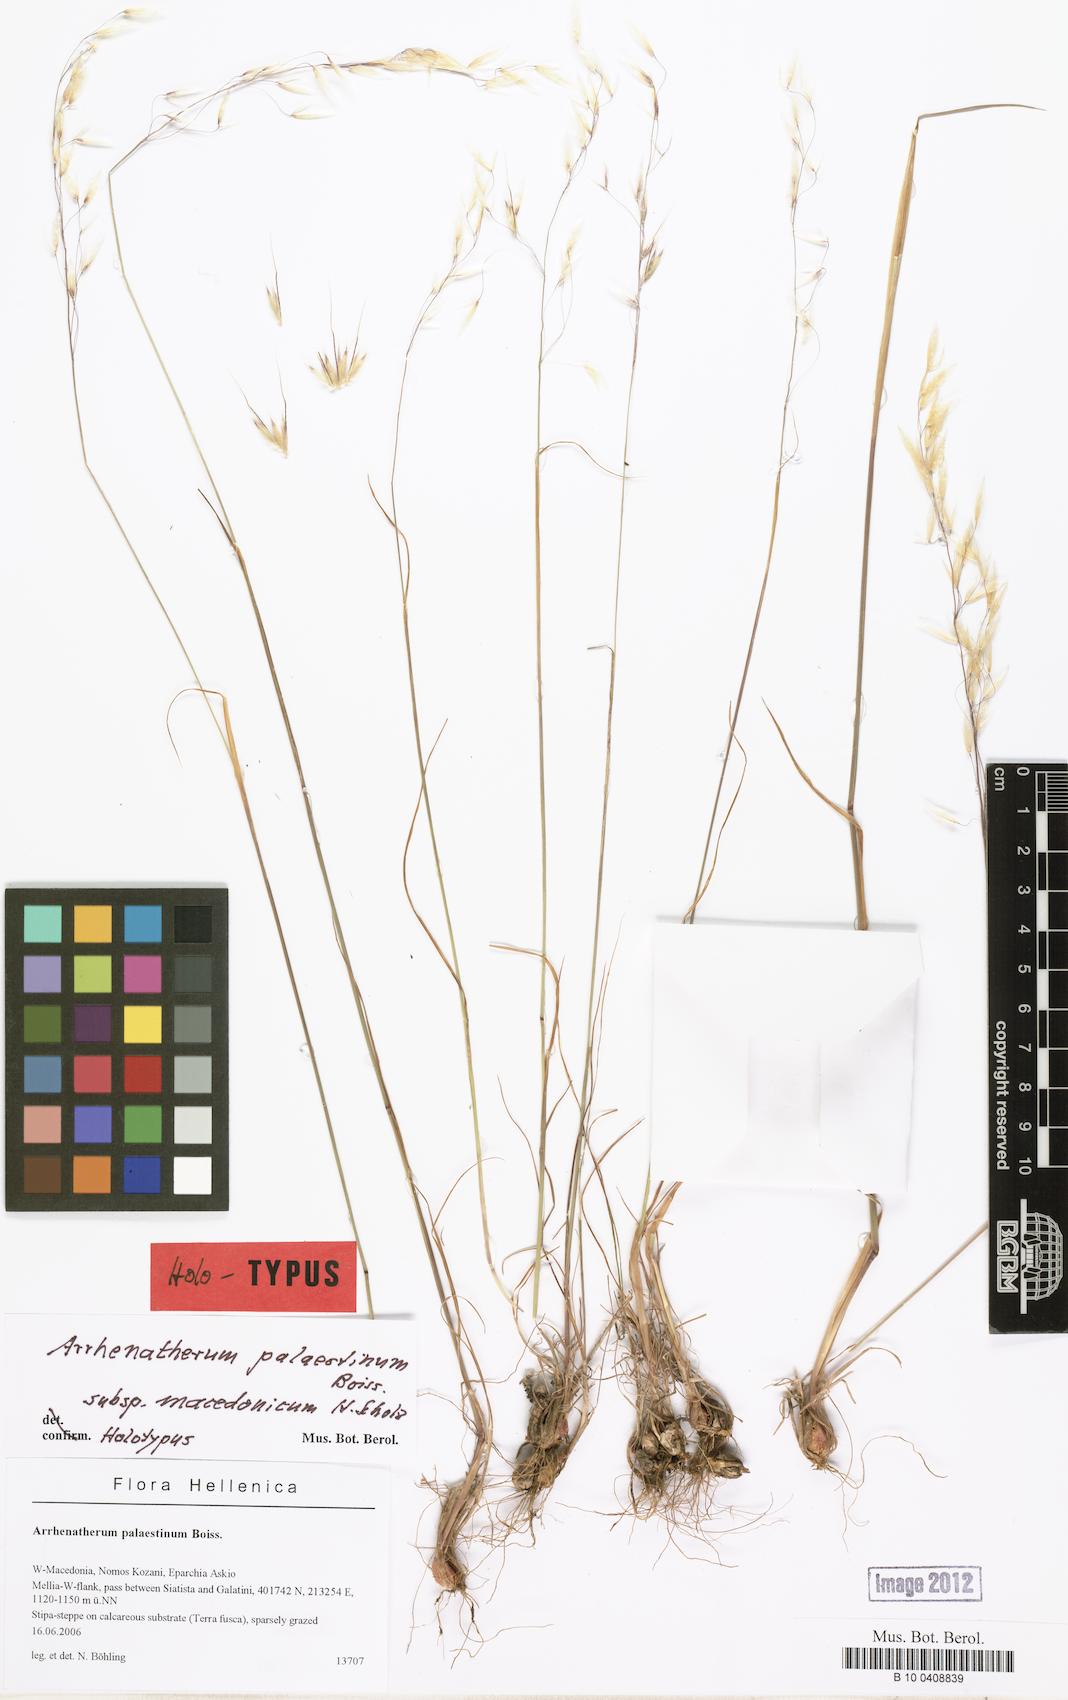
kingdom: Plantae
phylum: Tracheophyta
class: Liliopsida
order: Poales
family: Poaceae
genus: Arrhenatherum
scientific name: Arrhenatherum palaestinum
